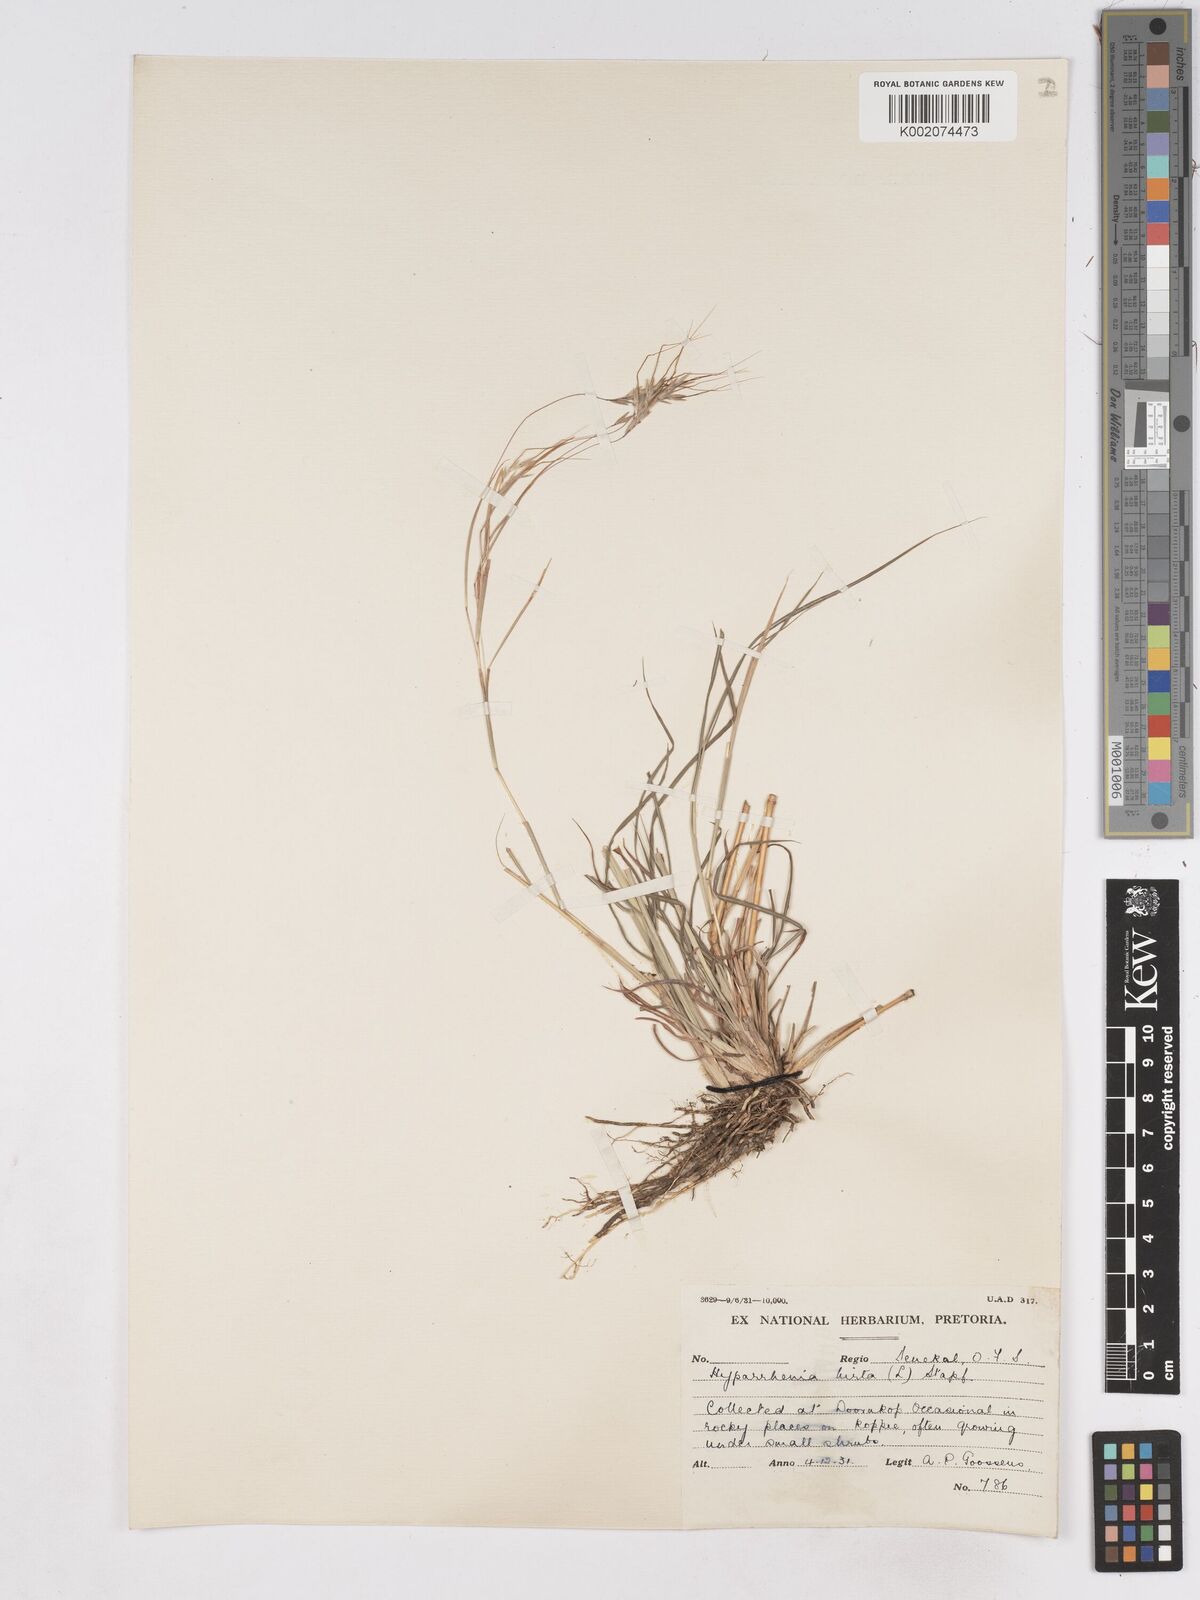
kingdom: Plantae
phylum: Tracheophyta
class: Liliopsida
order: Poales
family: Poaceae
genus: Hyparrhenia
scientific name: Hyparrhenia hirta
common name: Thatching grass
